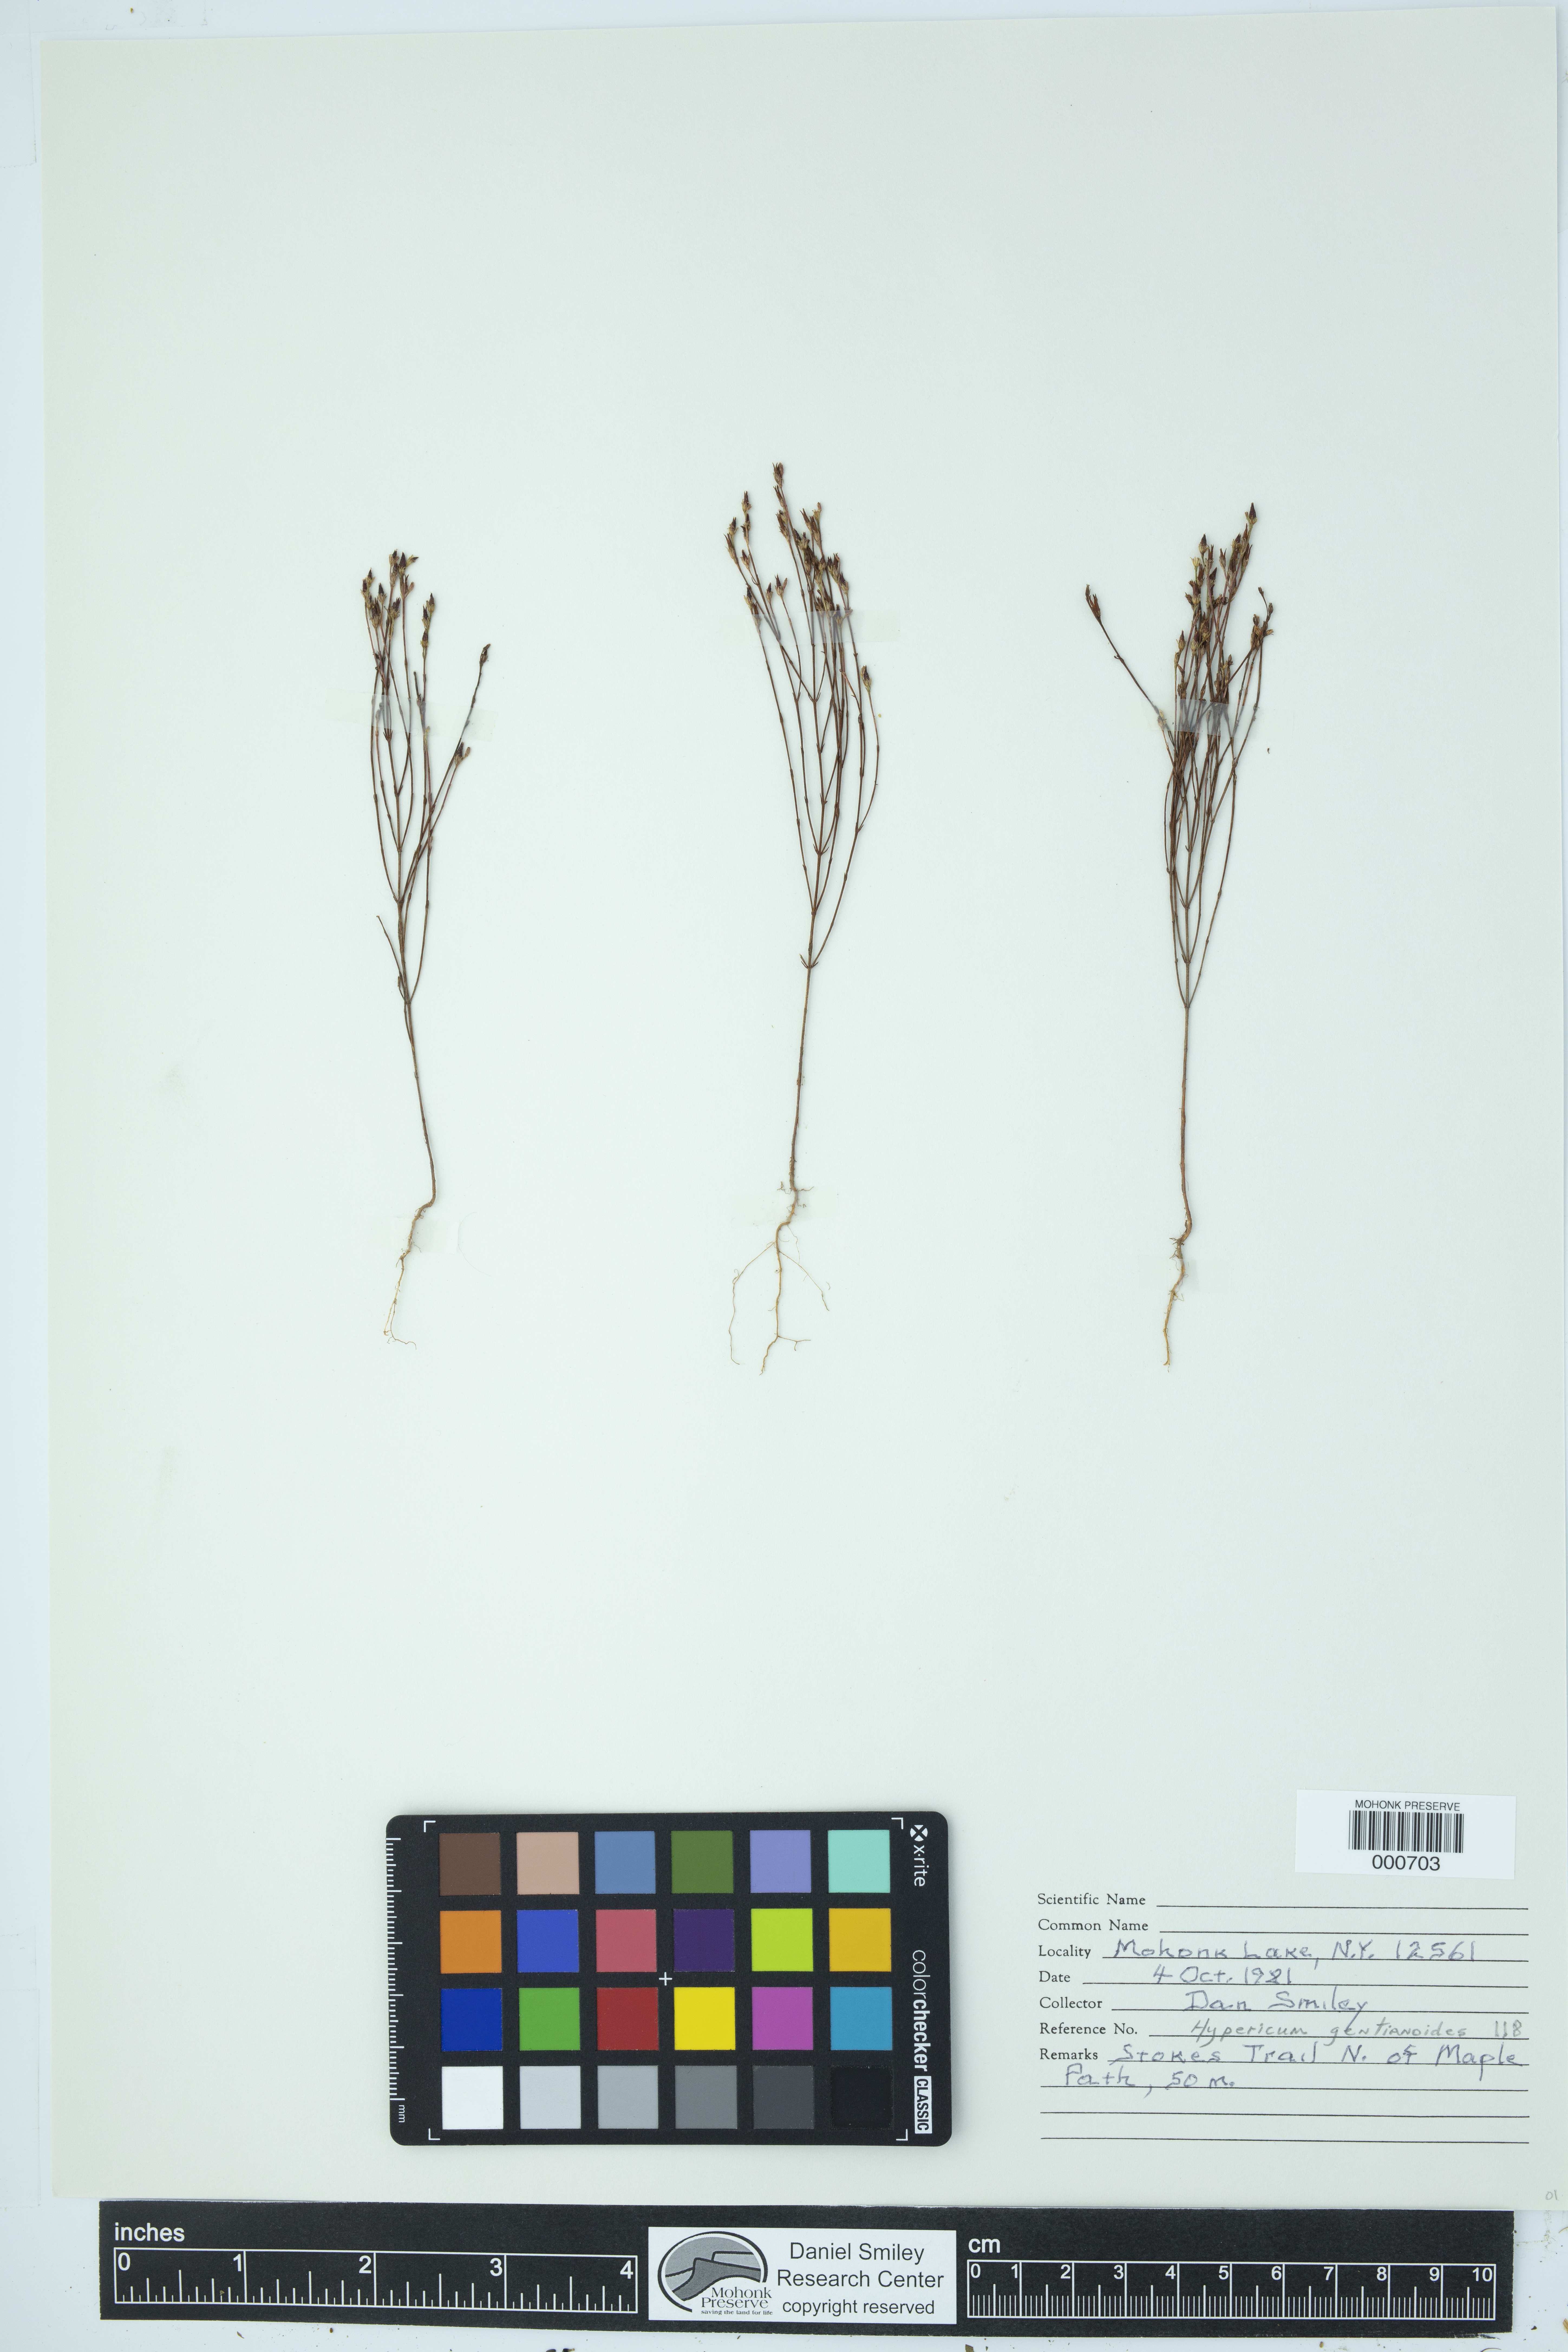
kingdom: Plantae
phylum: Tracheophyta
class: Magnoliopsida
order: Malpighiales
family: Hypericaceae
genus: Hypericum
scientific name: Hypericum gentianoides
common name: Gentian-leaved st. john's-wort
